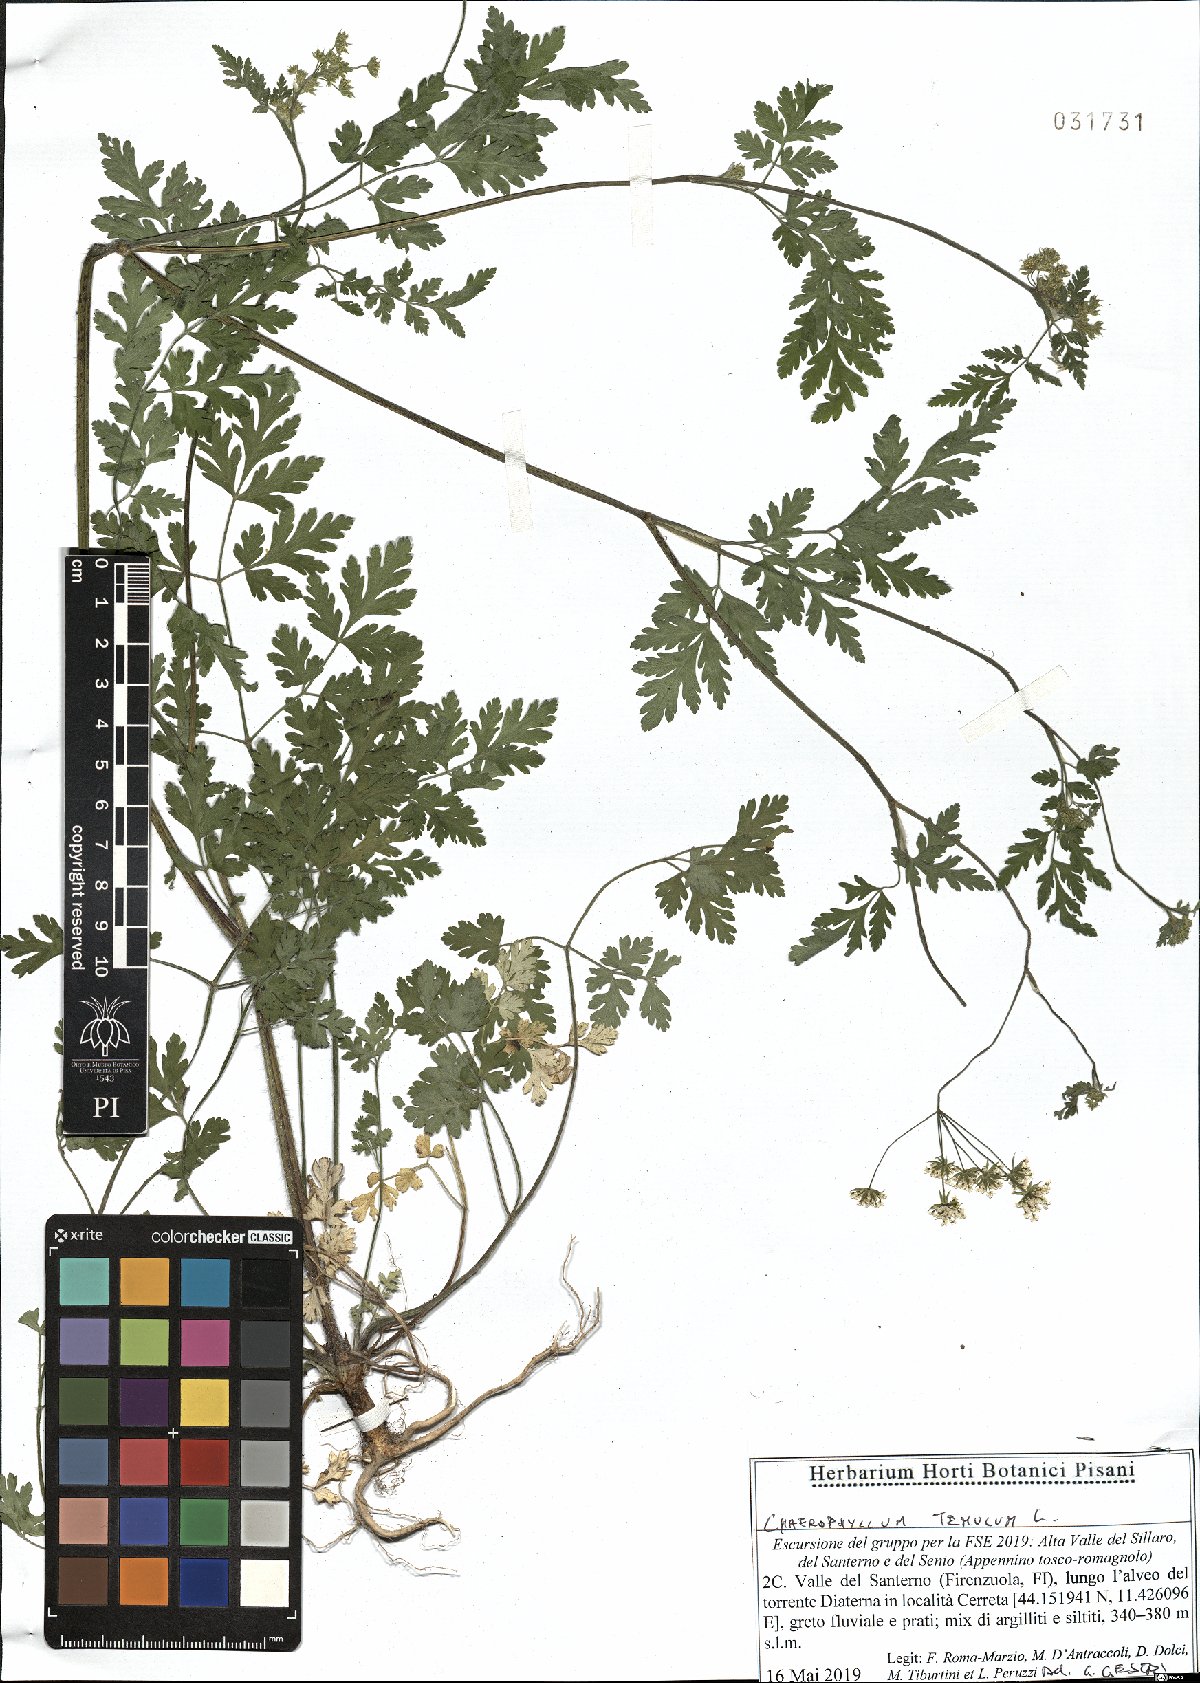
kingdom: Plantae
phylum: Tracheophyta
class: Magnoliopsida
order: Apiales
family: Apiaceae
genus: Chaerophyllum
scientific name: Chaerophyllum temulum
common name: Rough chervil
